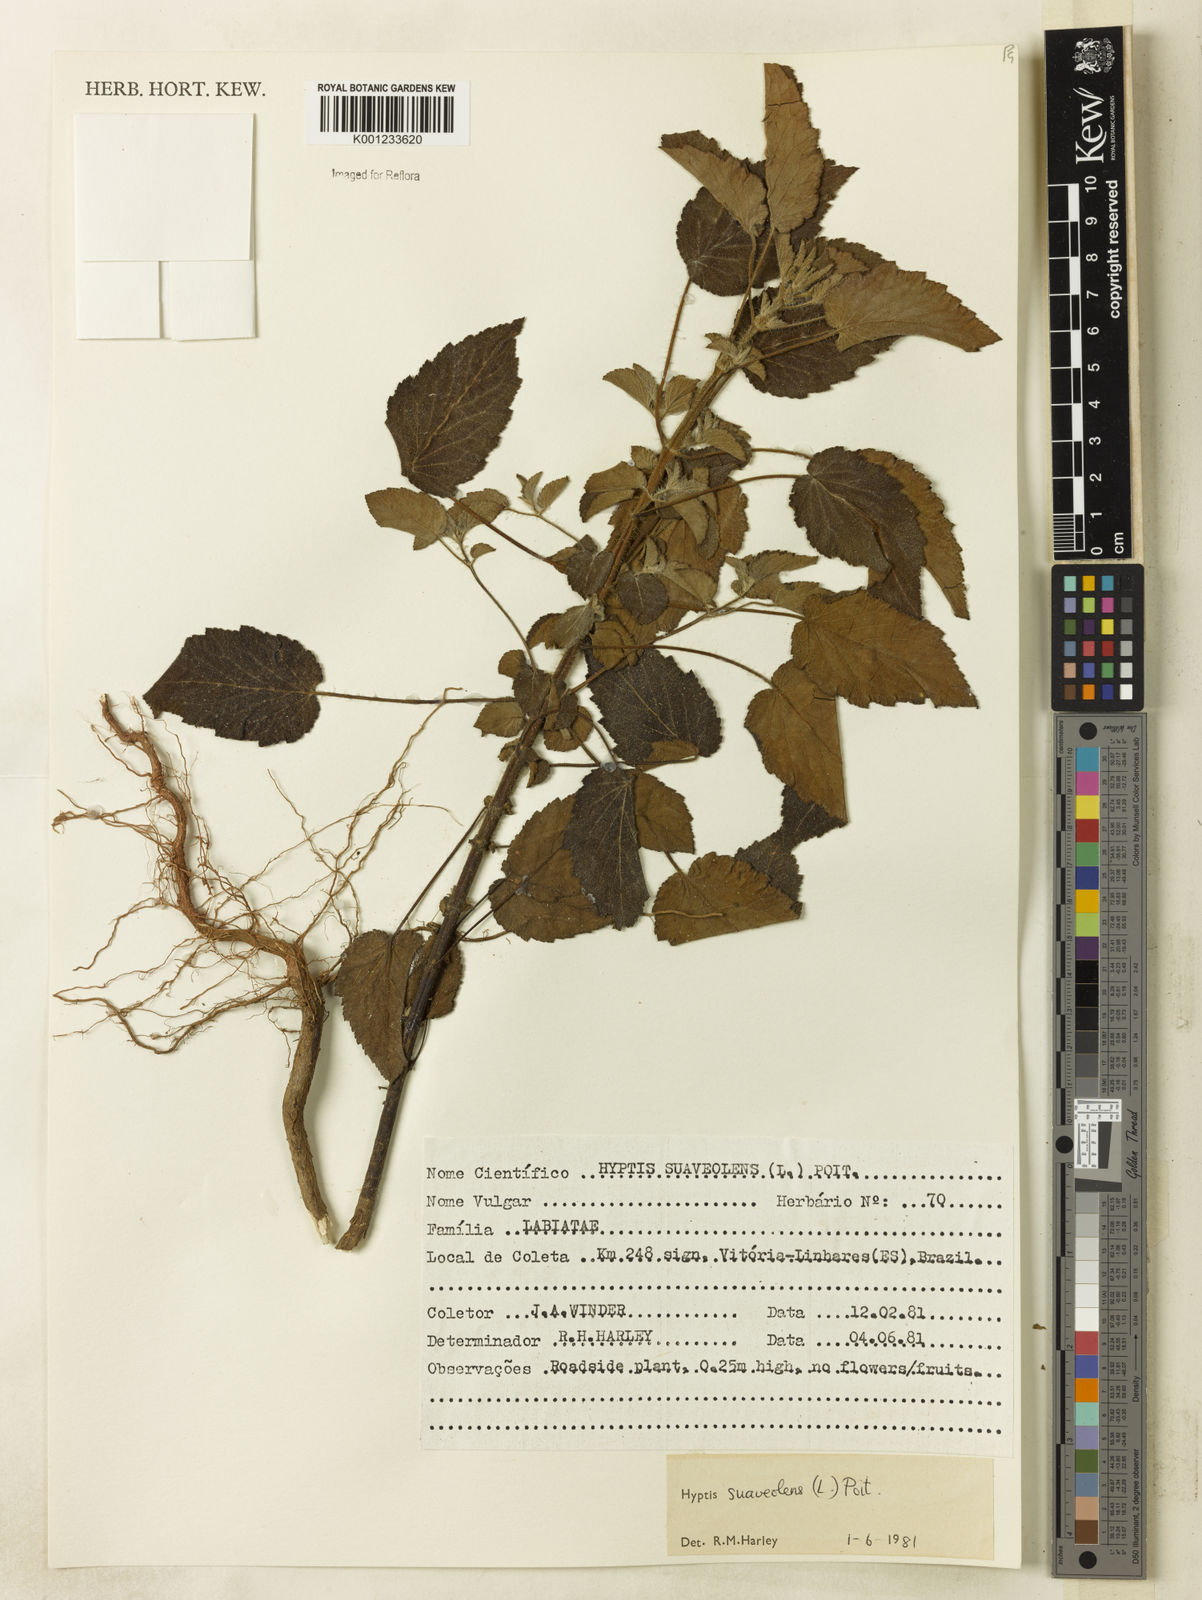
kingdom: Plantae
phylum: Tracheophyta
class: Magnoliopsida
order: Lamiales
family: Lamiaceae
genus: Mesosphaerum
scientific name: Mesosphaerum suaveolens
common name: Pignut
